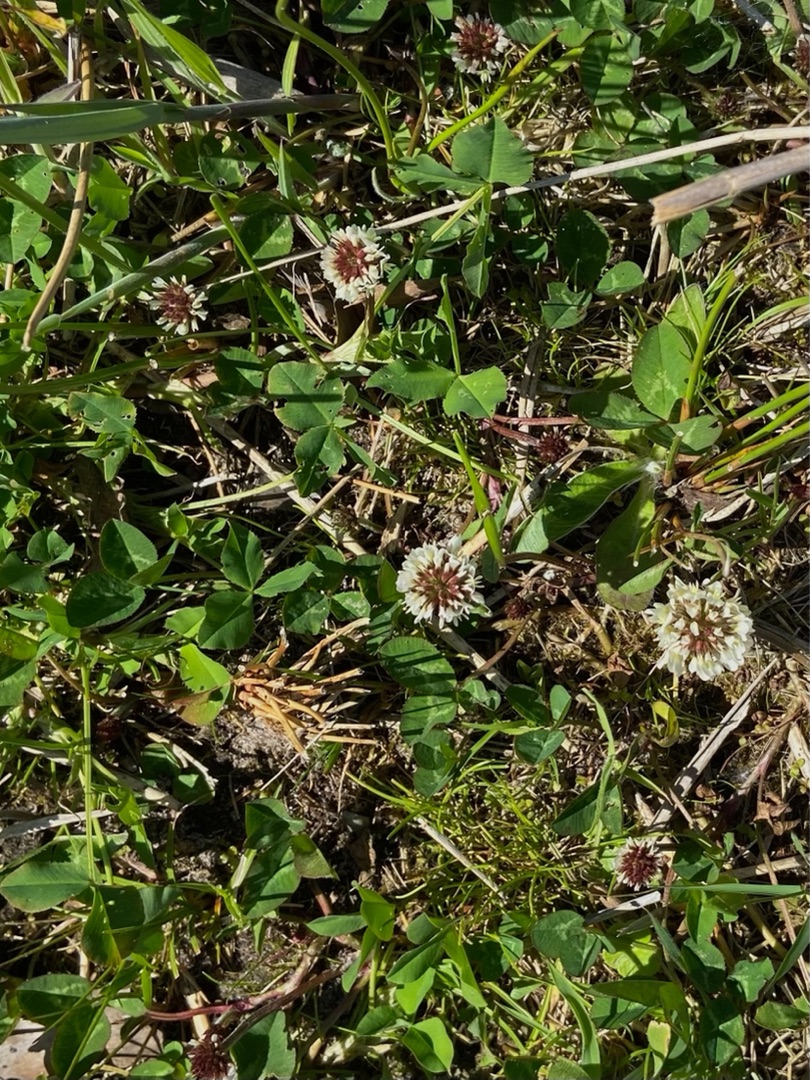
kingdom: Plantae
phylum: Tracheophyta
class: Magnoliopsida
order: Fabales
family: Fabaceae
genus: Trifolium
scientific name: Trifolium repens
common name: Hvid-kløver
